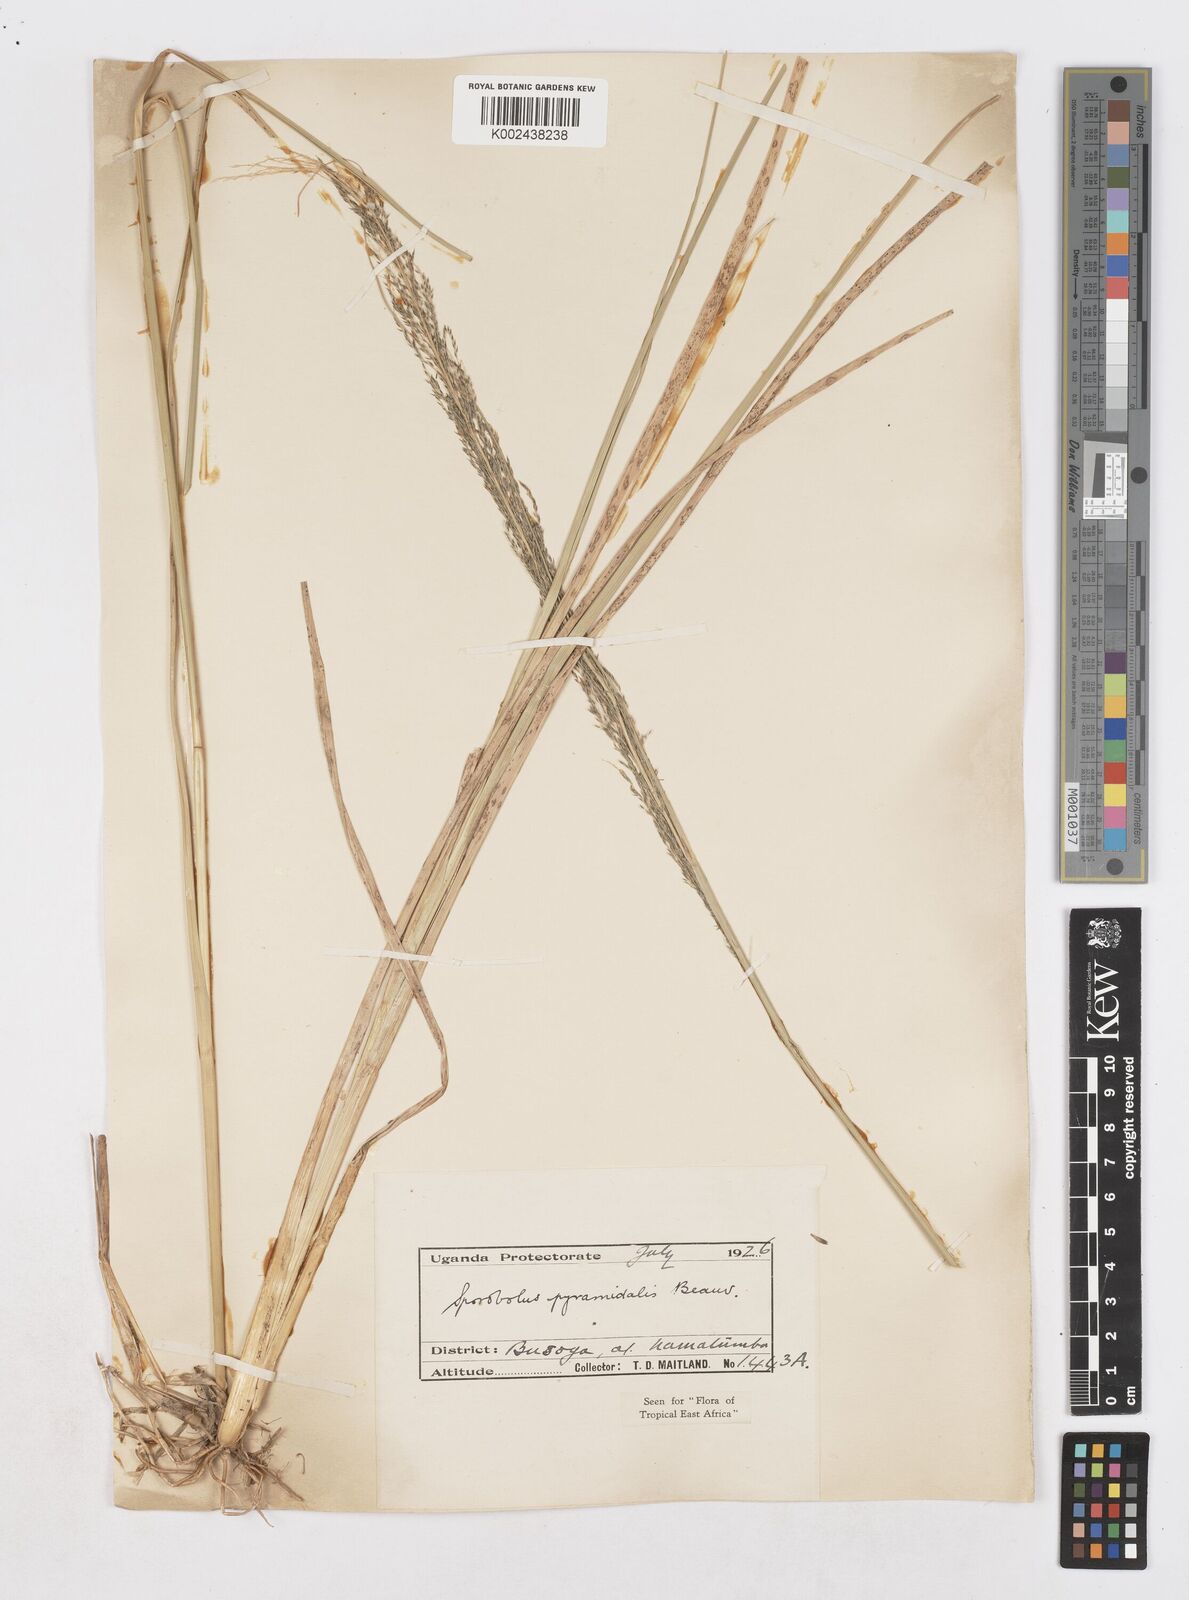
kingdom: Plantae
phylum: Tracheophyta
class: Liliopsida
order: Poales
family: Poaceae
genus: Sporobolus
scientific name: Sporobolus pyramidalis
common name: West indian dropseed
